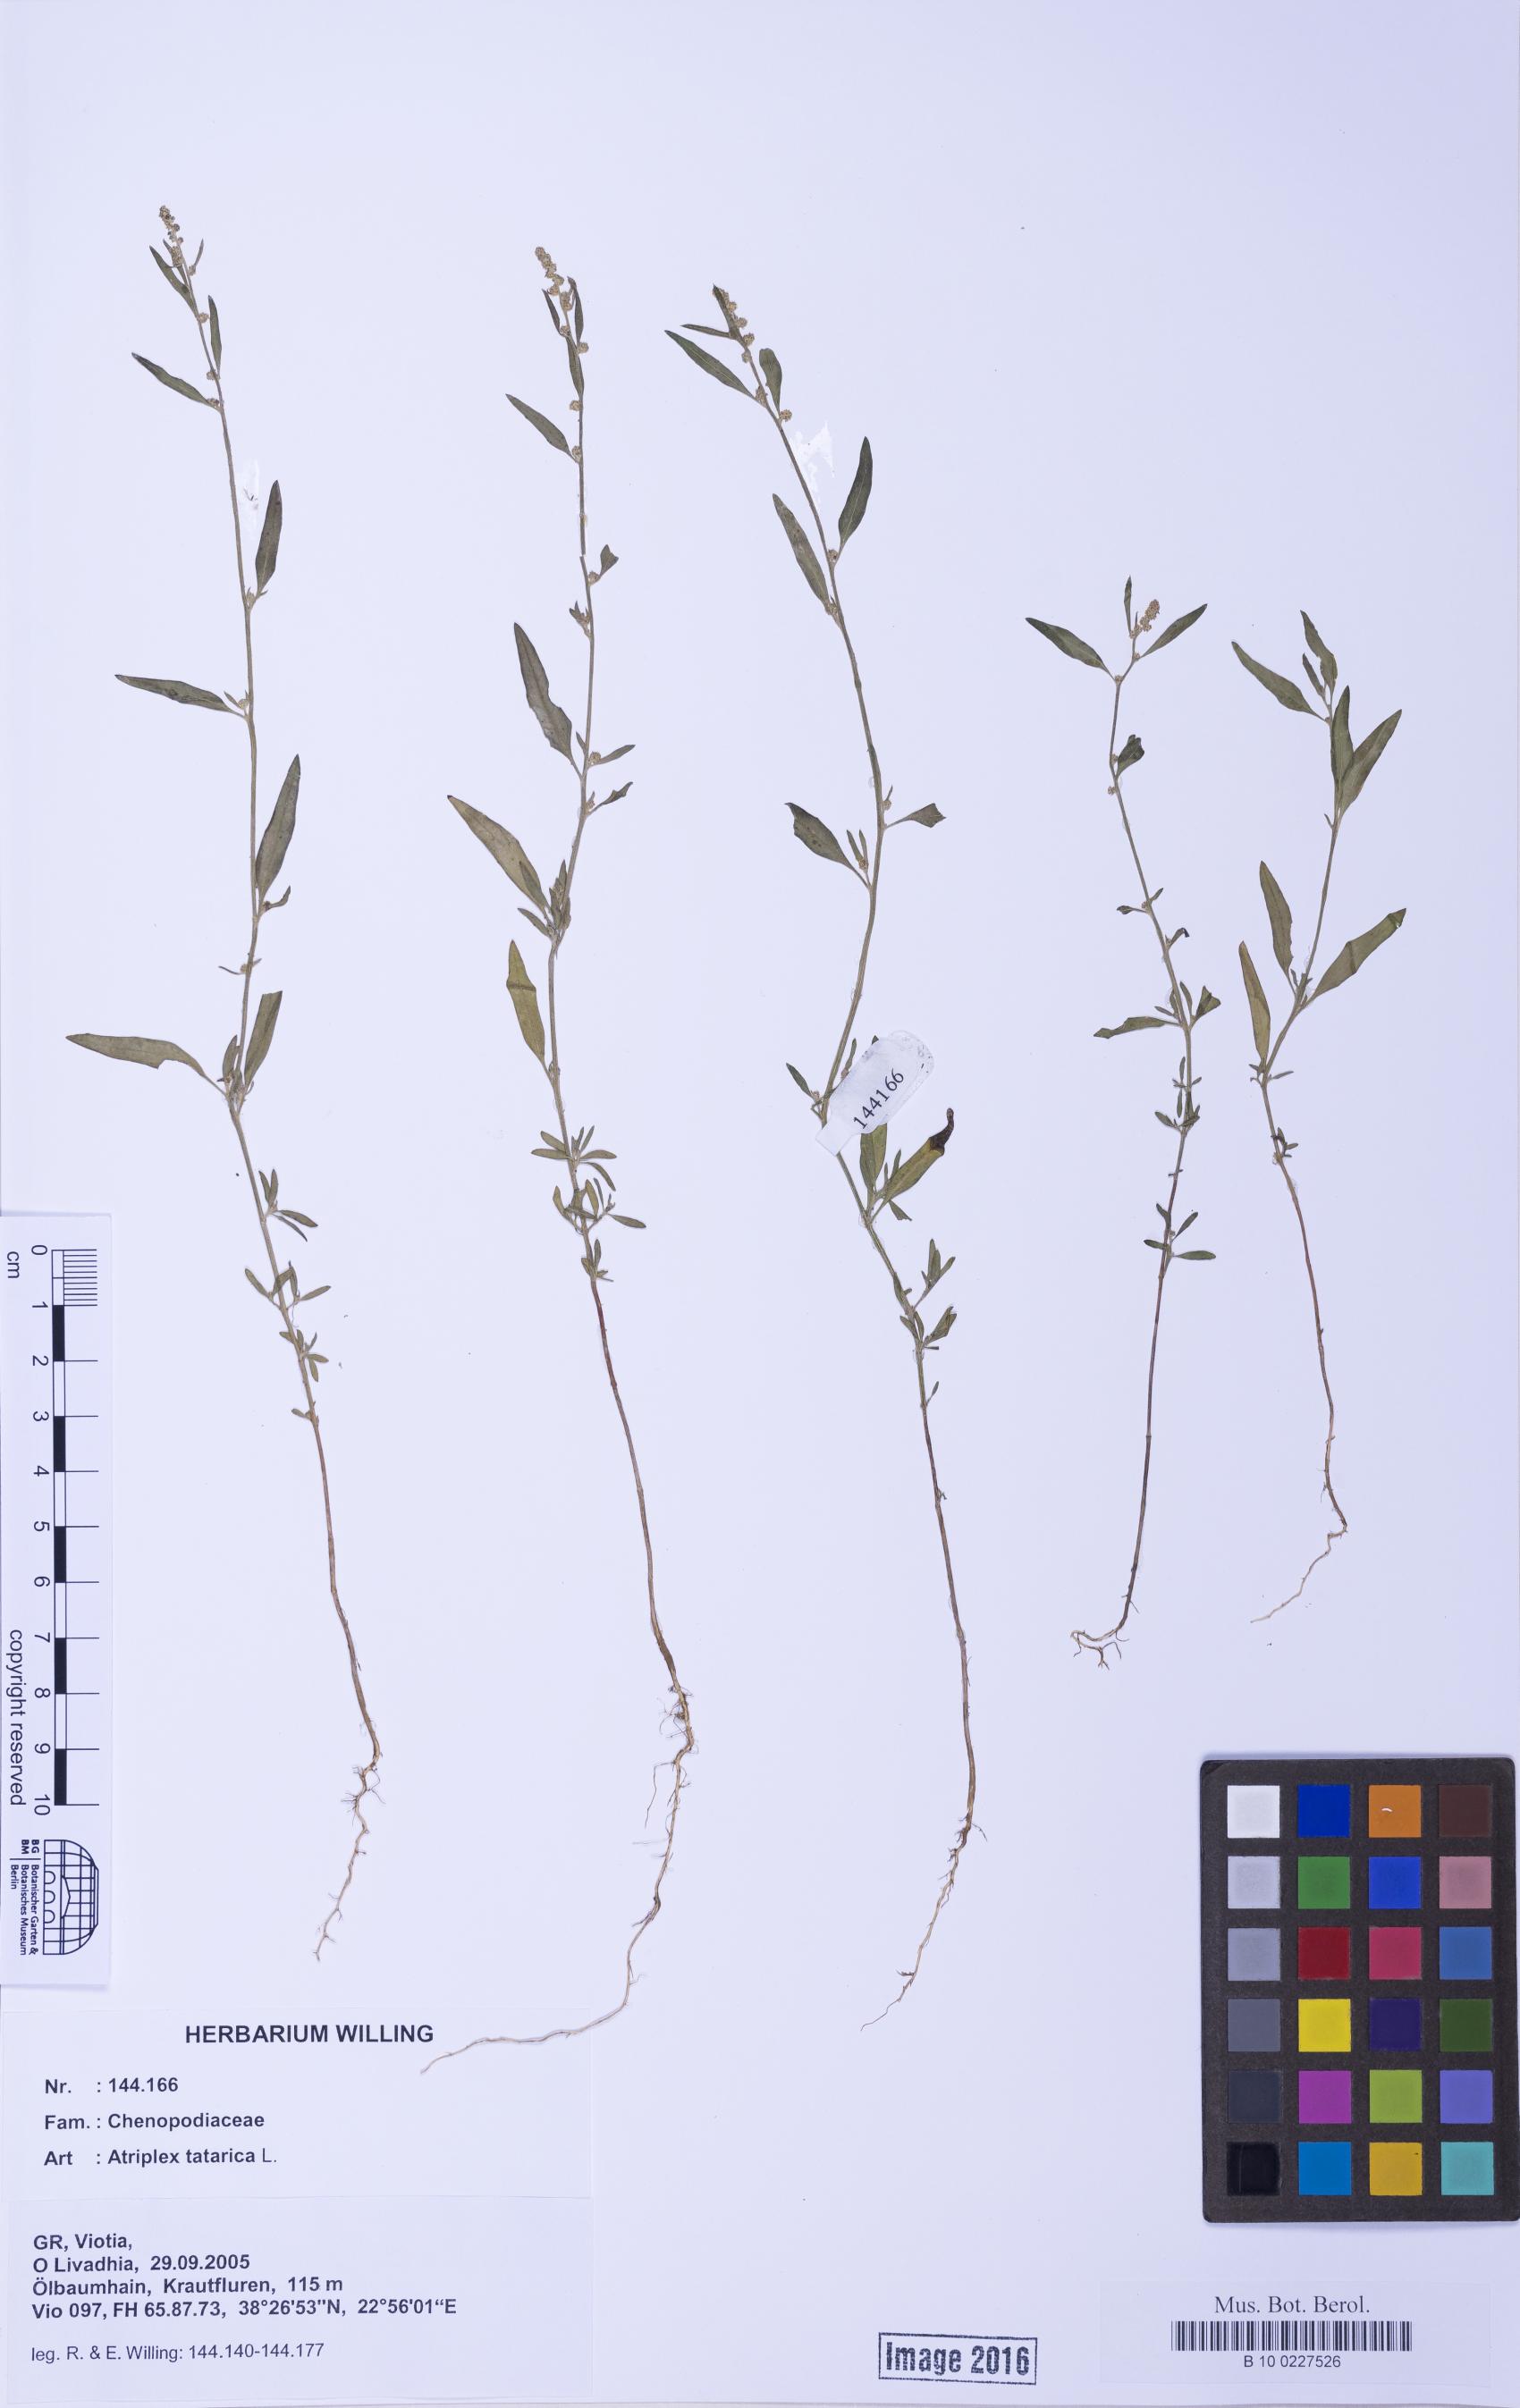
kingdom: Plantae
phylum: Tracheophyta
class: Magnoliopsida
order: Caryophyllales
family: Amaranthaceae
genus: Atriplex
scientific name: Atriplex patula
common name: Common orache
